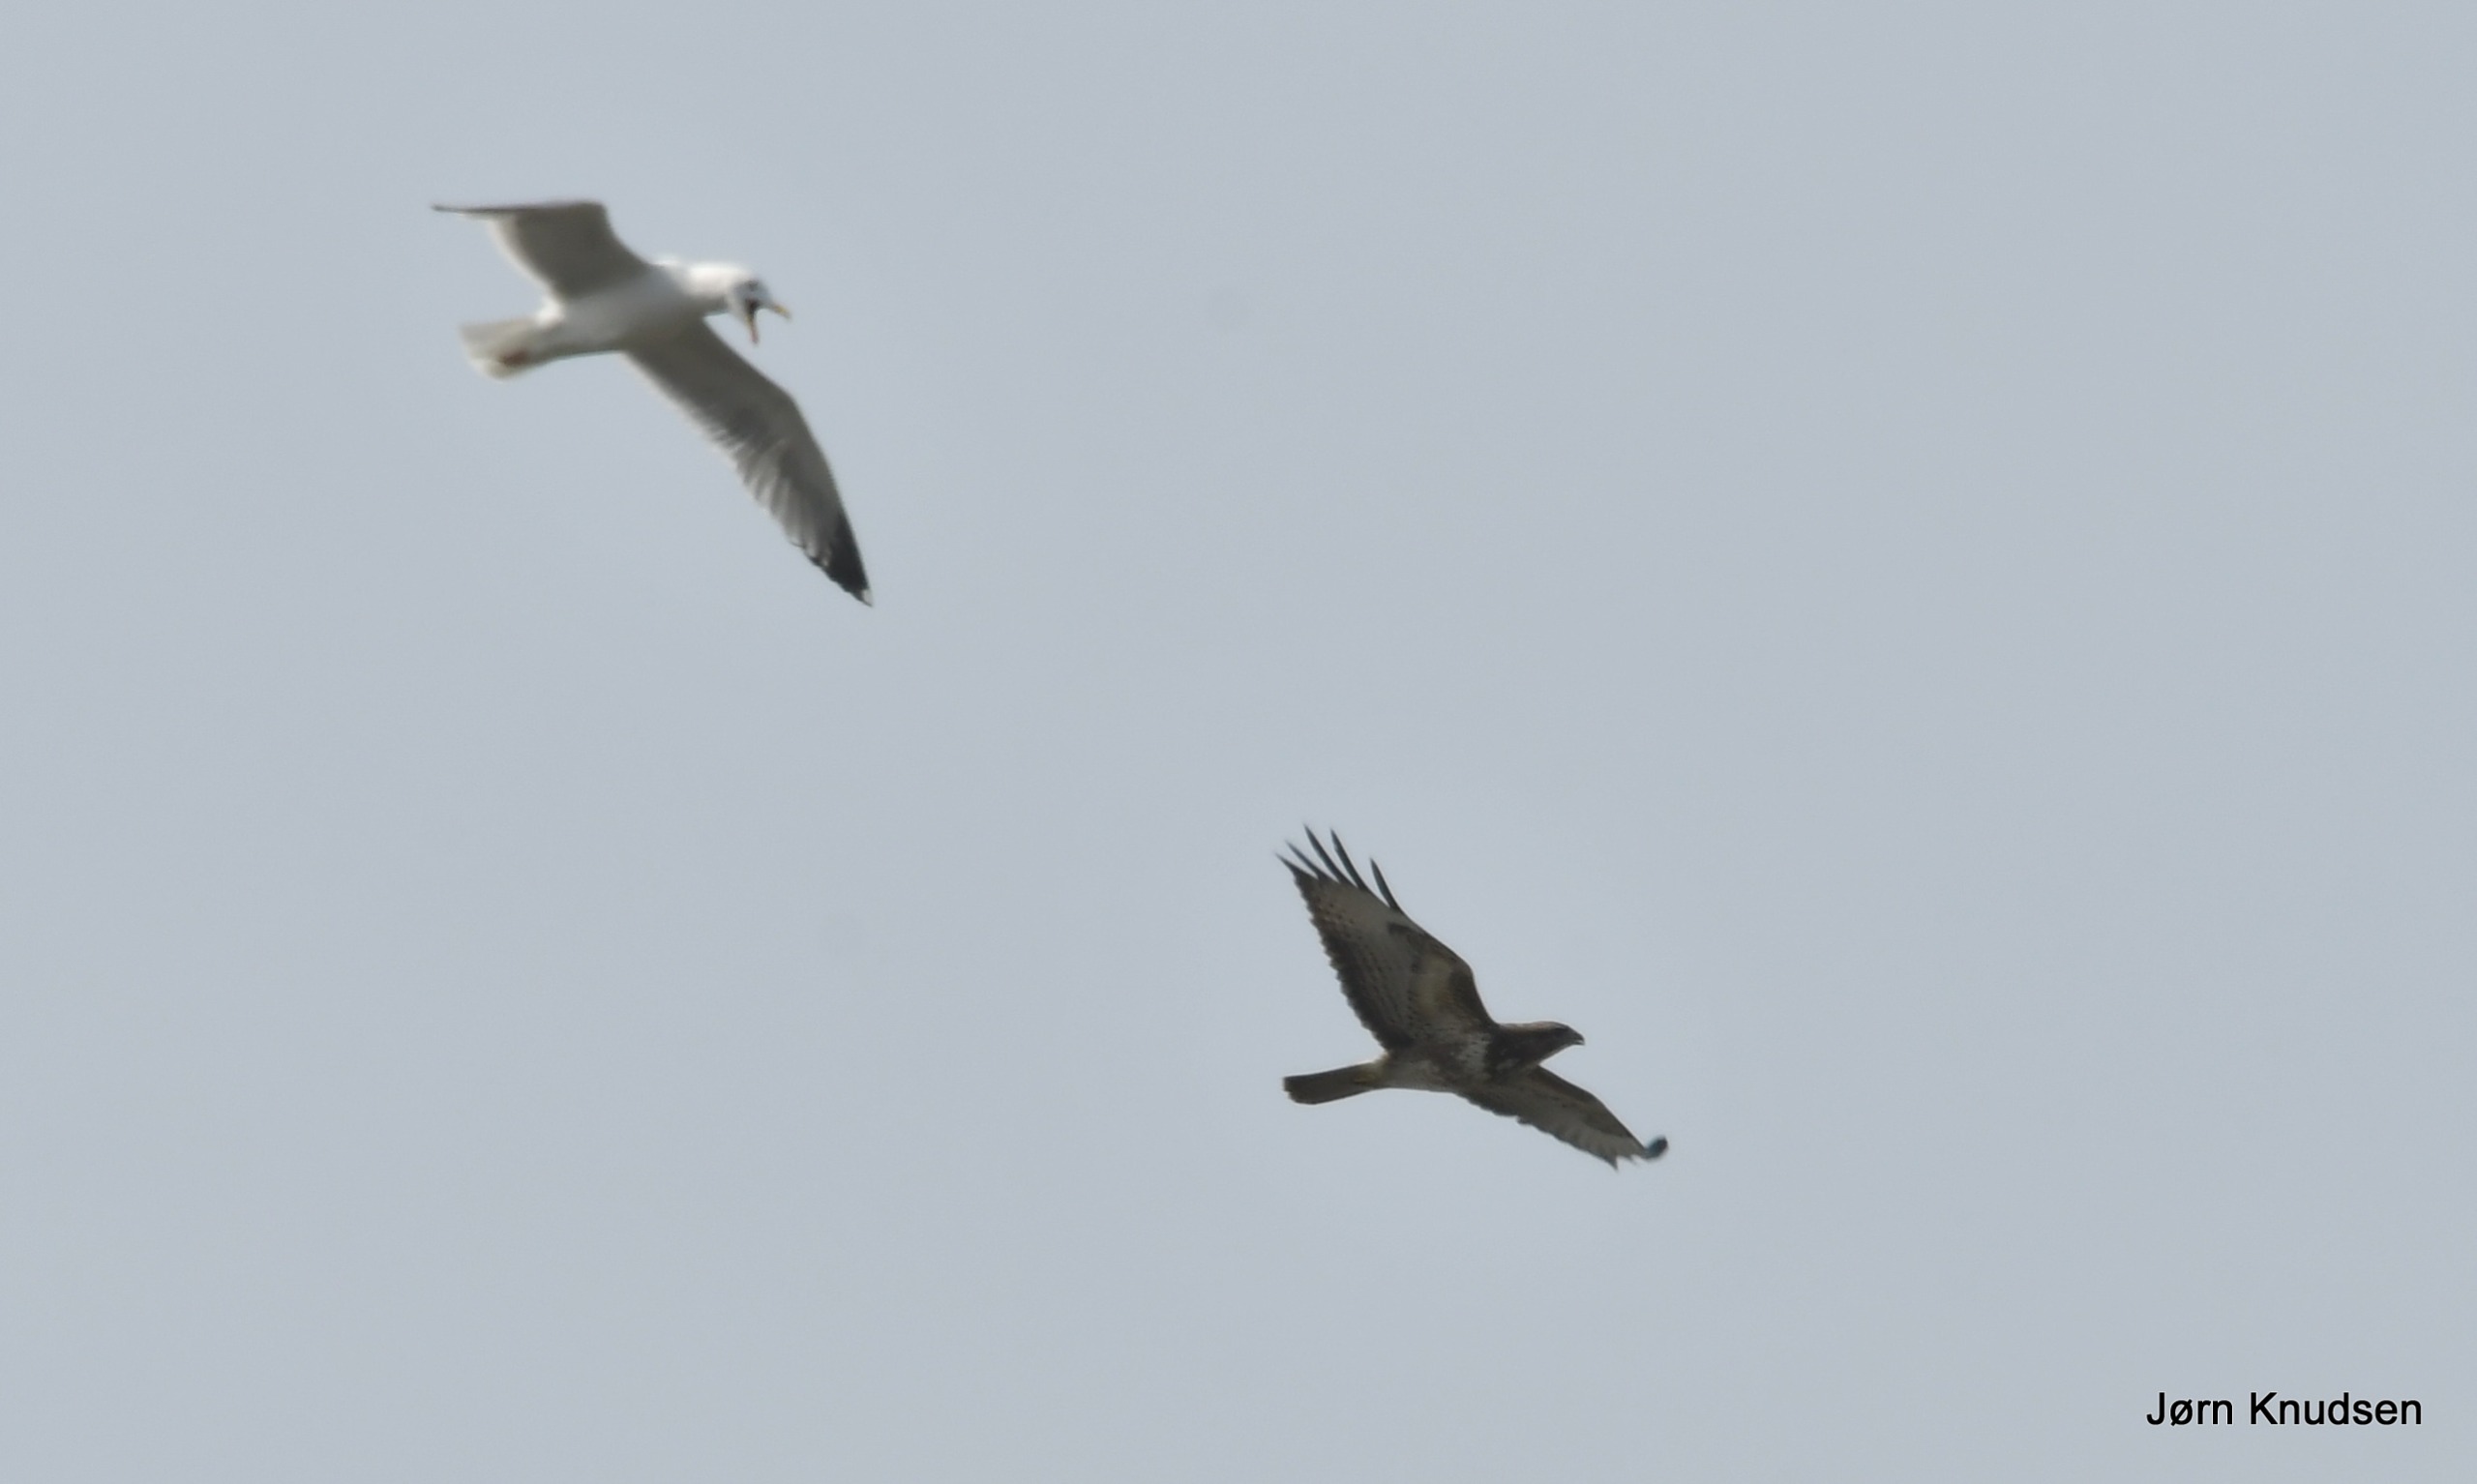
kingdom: Animalia
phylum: Chordata
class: Aves
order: Accipitriformes
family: Accipitridae
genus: Buteo
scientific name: Buteo buteo
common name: Musvåge
